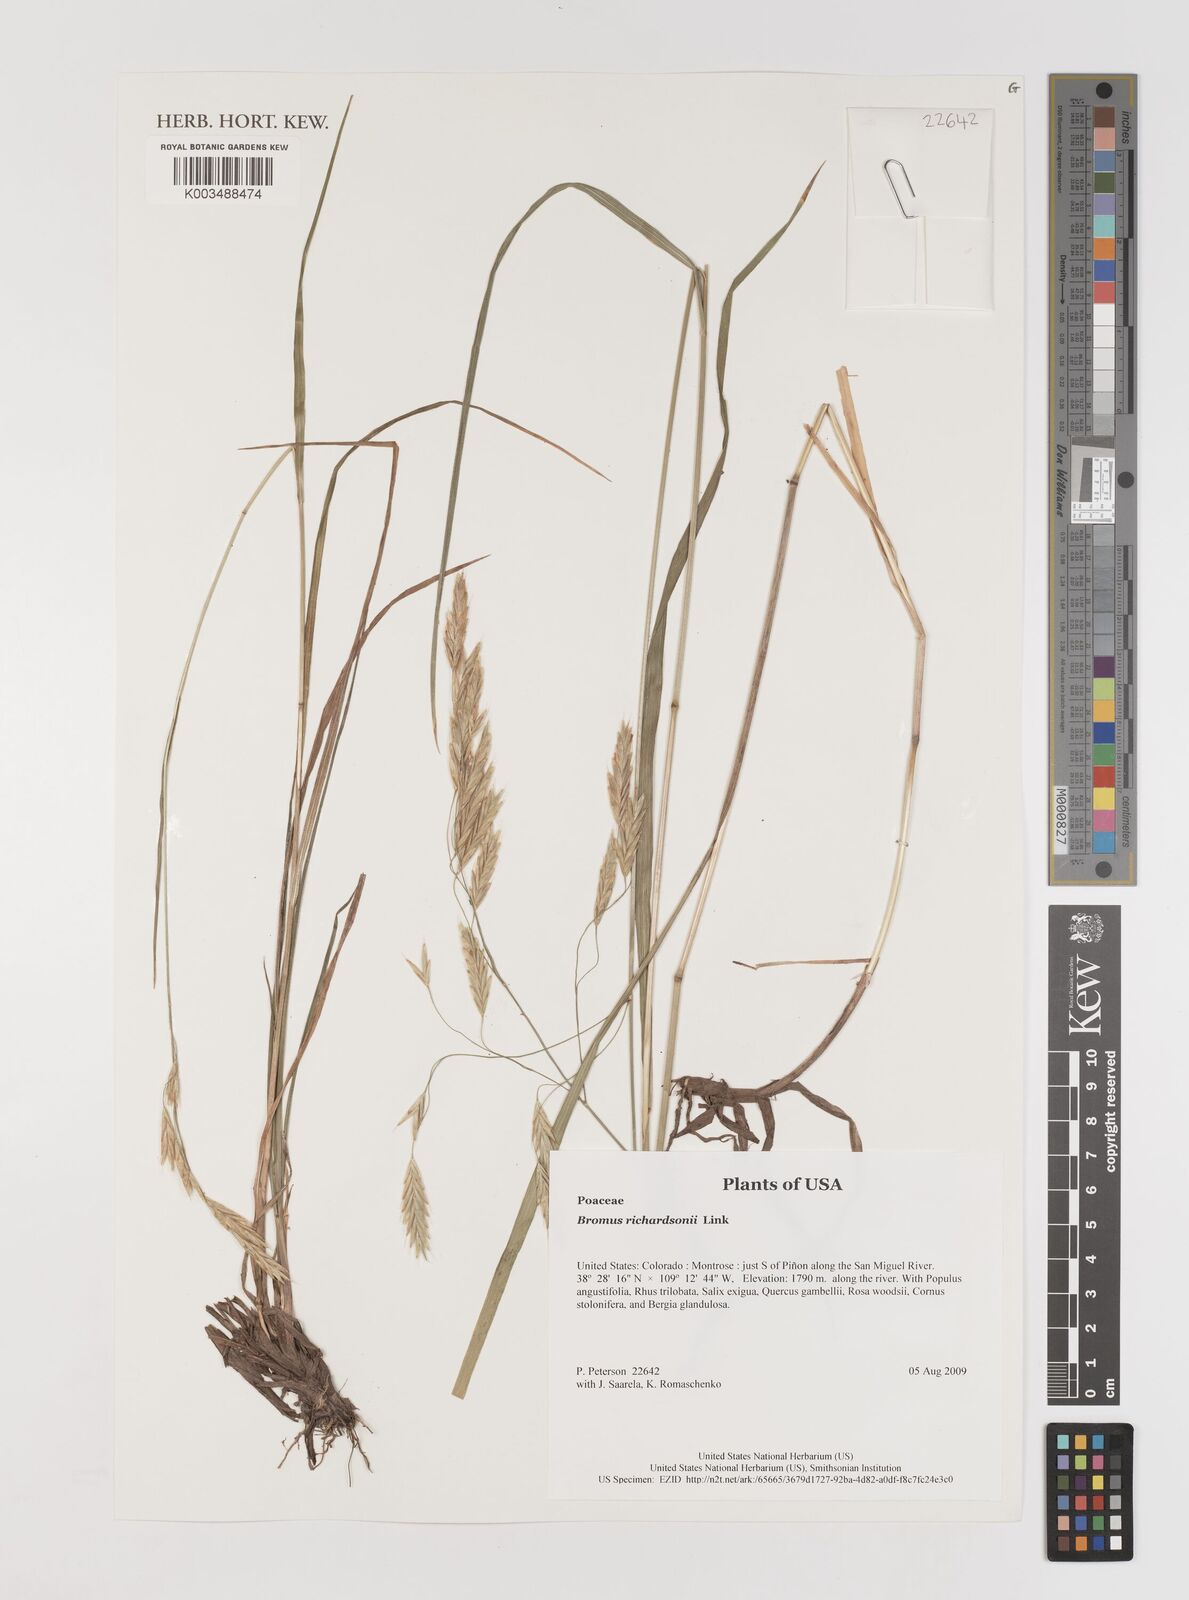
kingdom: Plantae
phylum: Tracheophyta
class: Liliopsida
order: Poales
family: Poaceae
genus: Bromus
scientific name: Bromus richardsonii
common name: Richardson's brome
